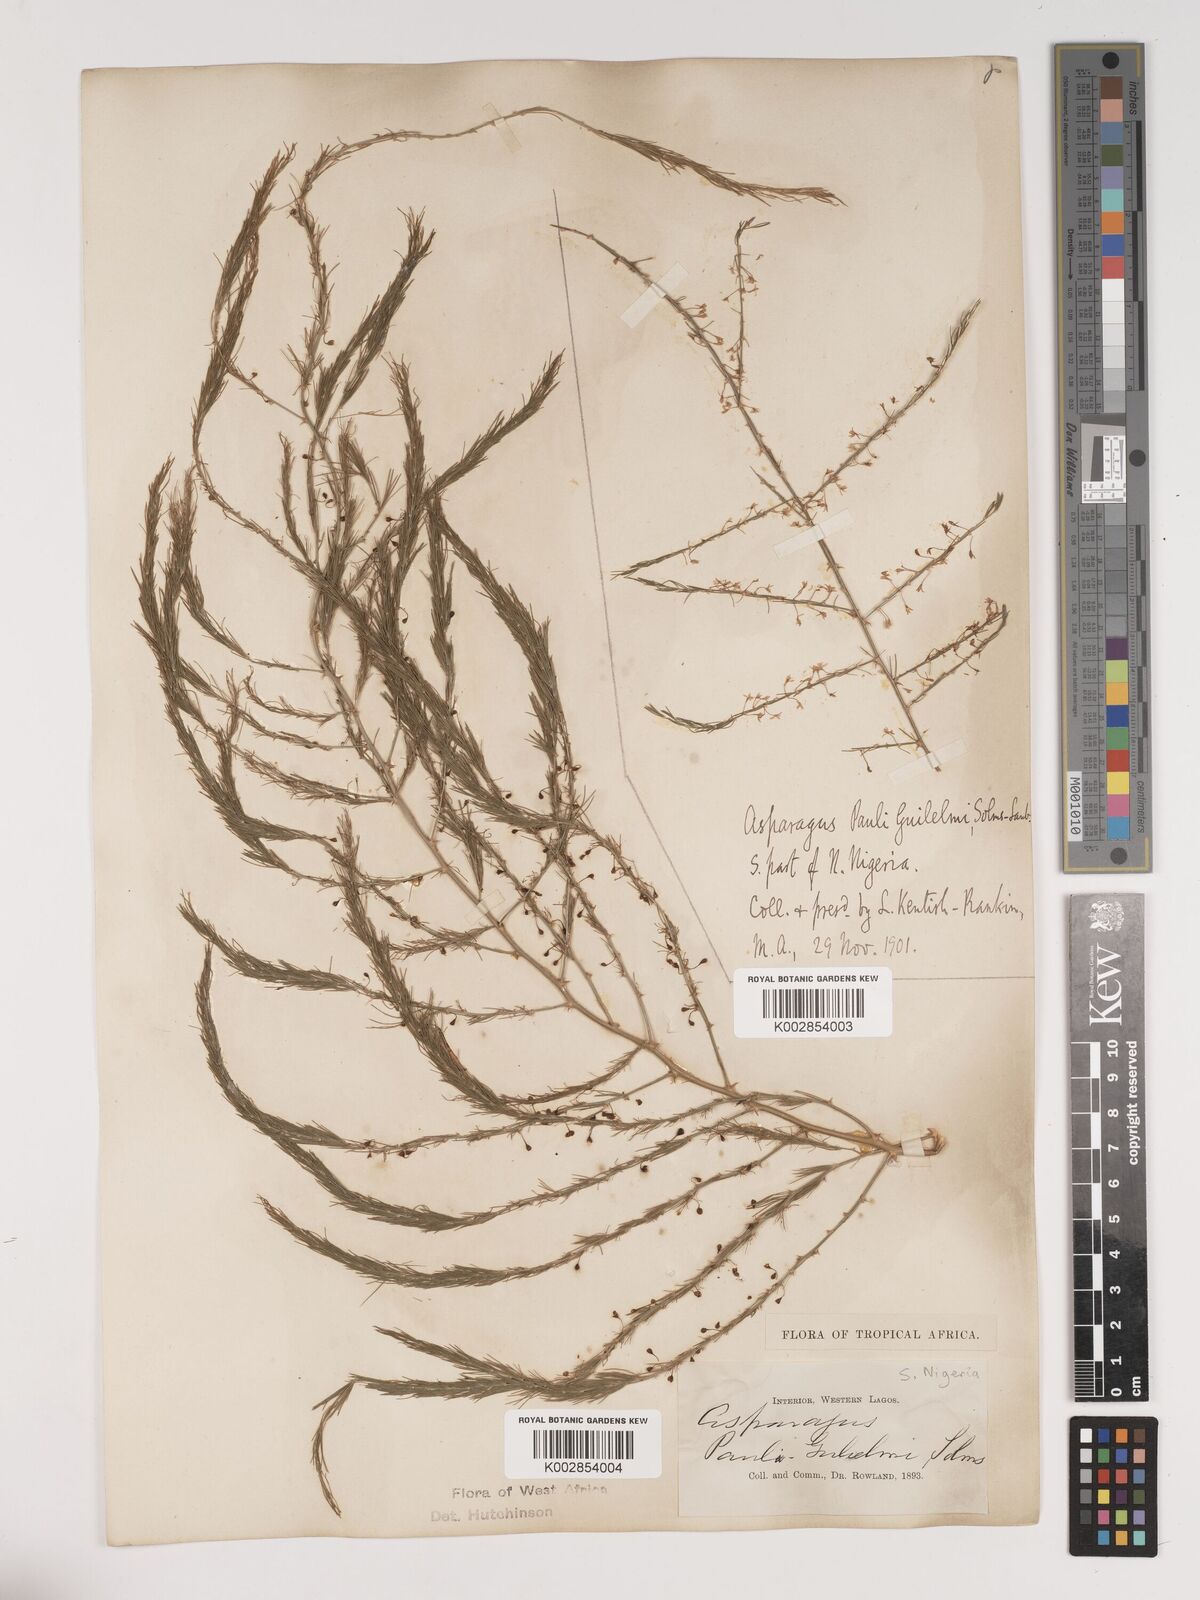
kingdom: Plantae
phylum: Tracheophyta
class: Liliopsida
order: Asparagales
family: Asparagaceae
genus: Asparagus
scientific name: Asparagus flagellaris
